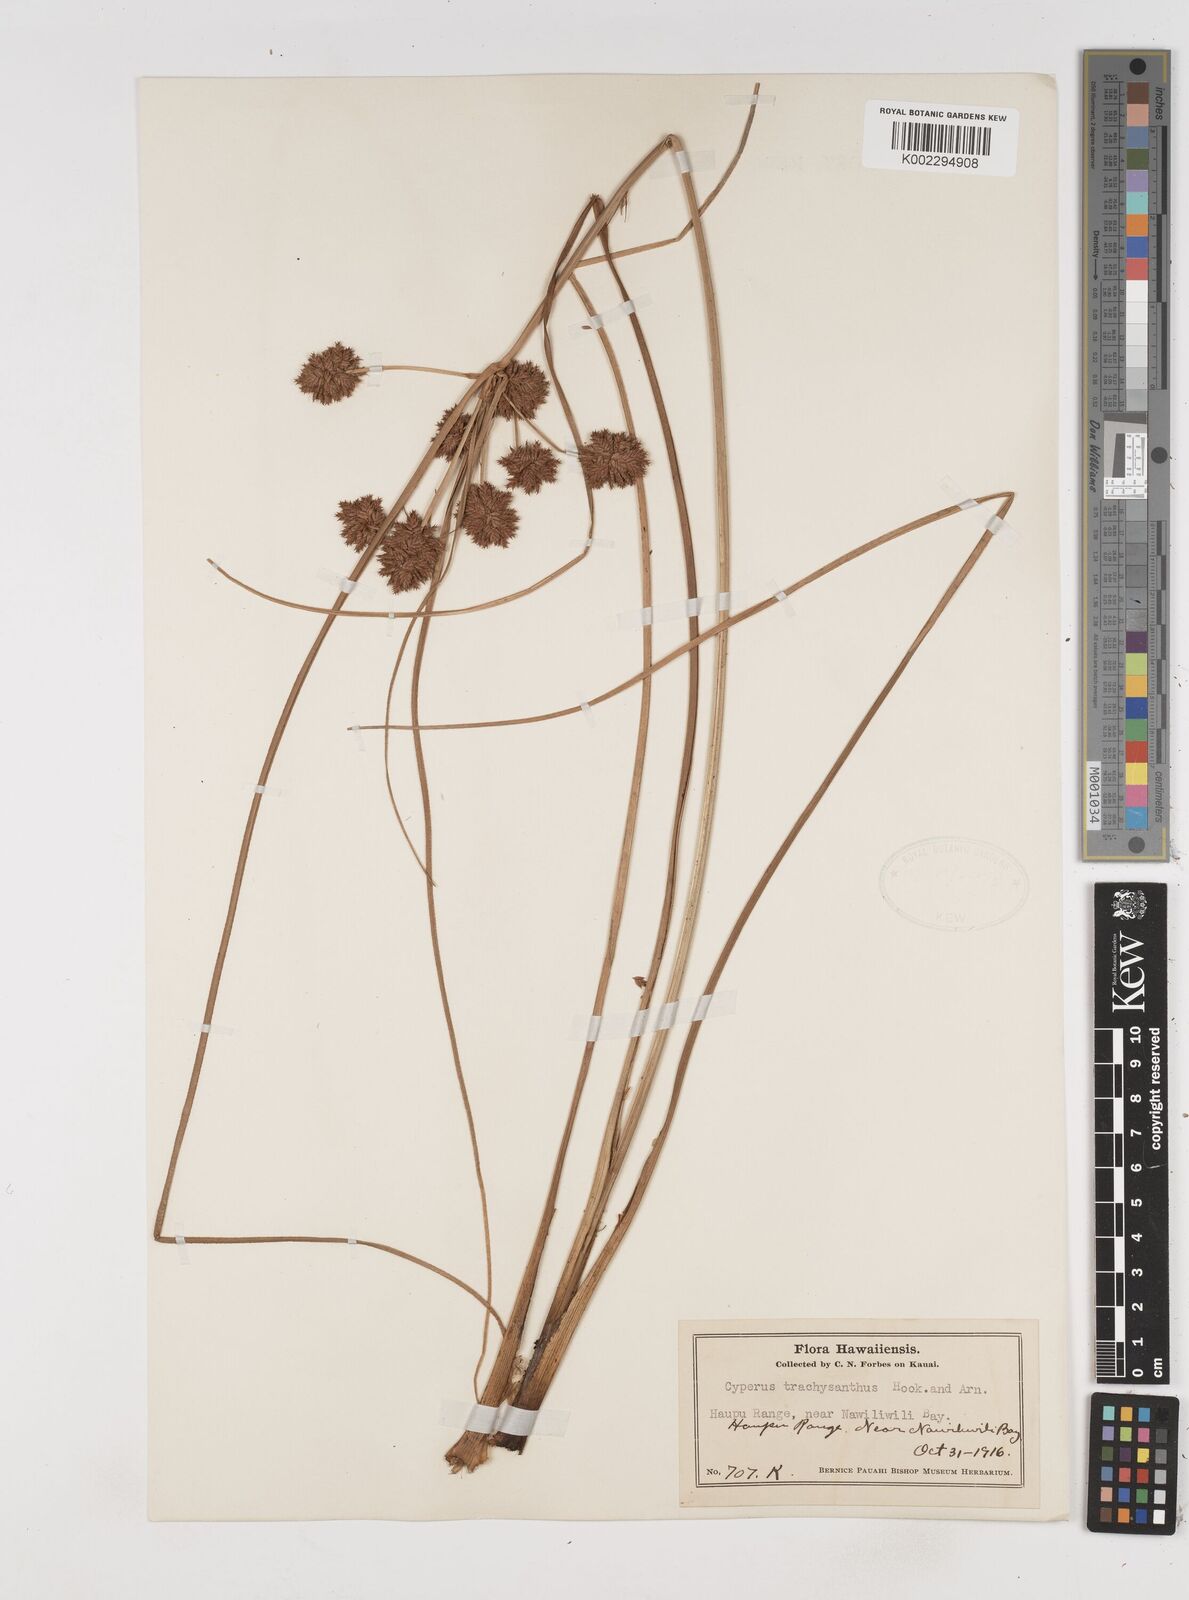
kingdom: Plantae
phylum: Tracheophyta
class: Liliopsida
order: Poales
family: Cyperaceae
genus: Cyperus
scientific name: Cyperus trachysanthos
